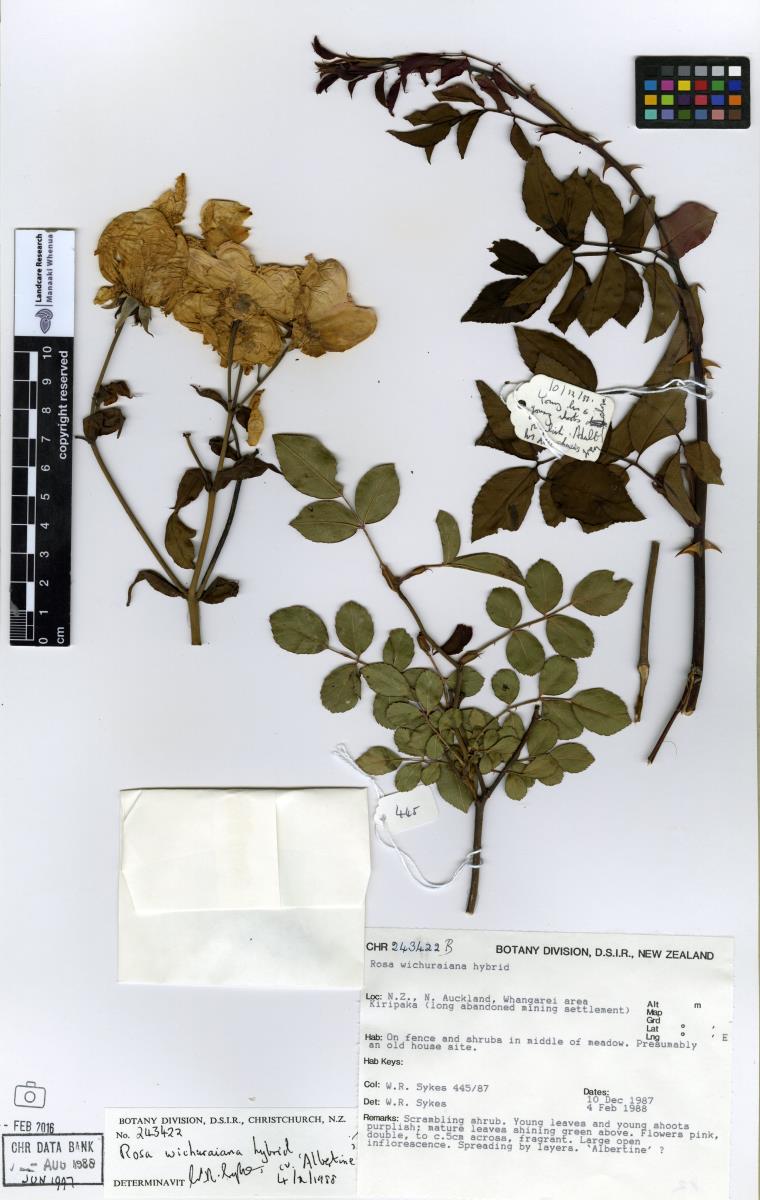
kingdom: Plantae
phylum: Tracheophyta
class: Magnoliopsida
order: Rosales
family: Rosaceae
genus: Rosa
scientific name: Rosa lucieae
